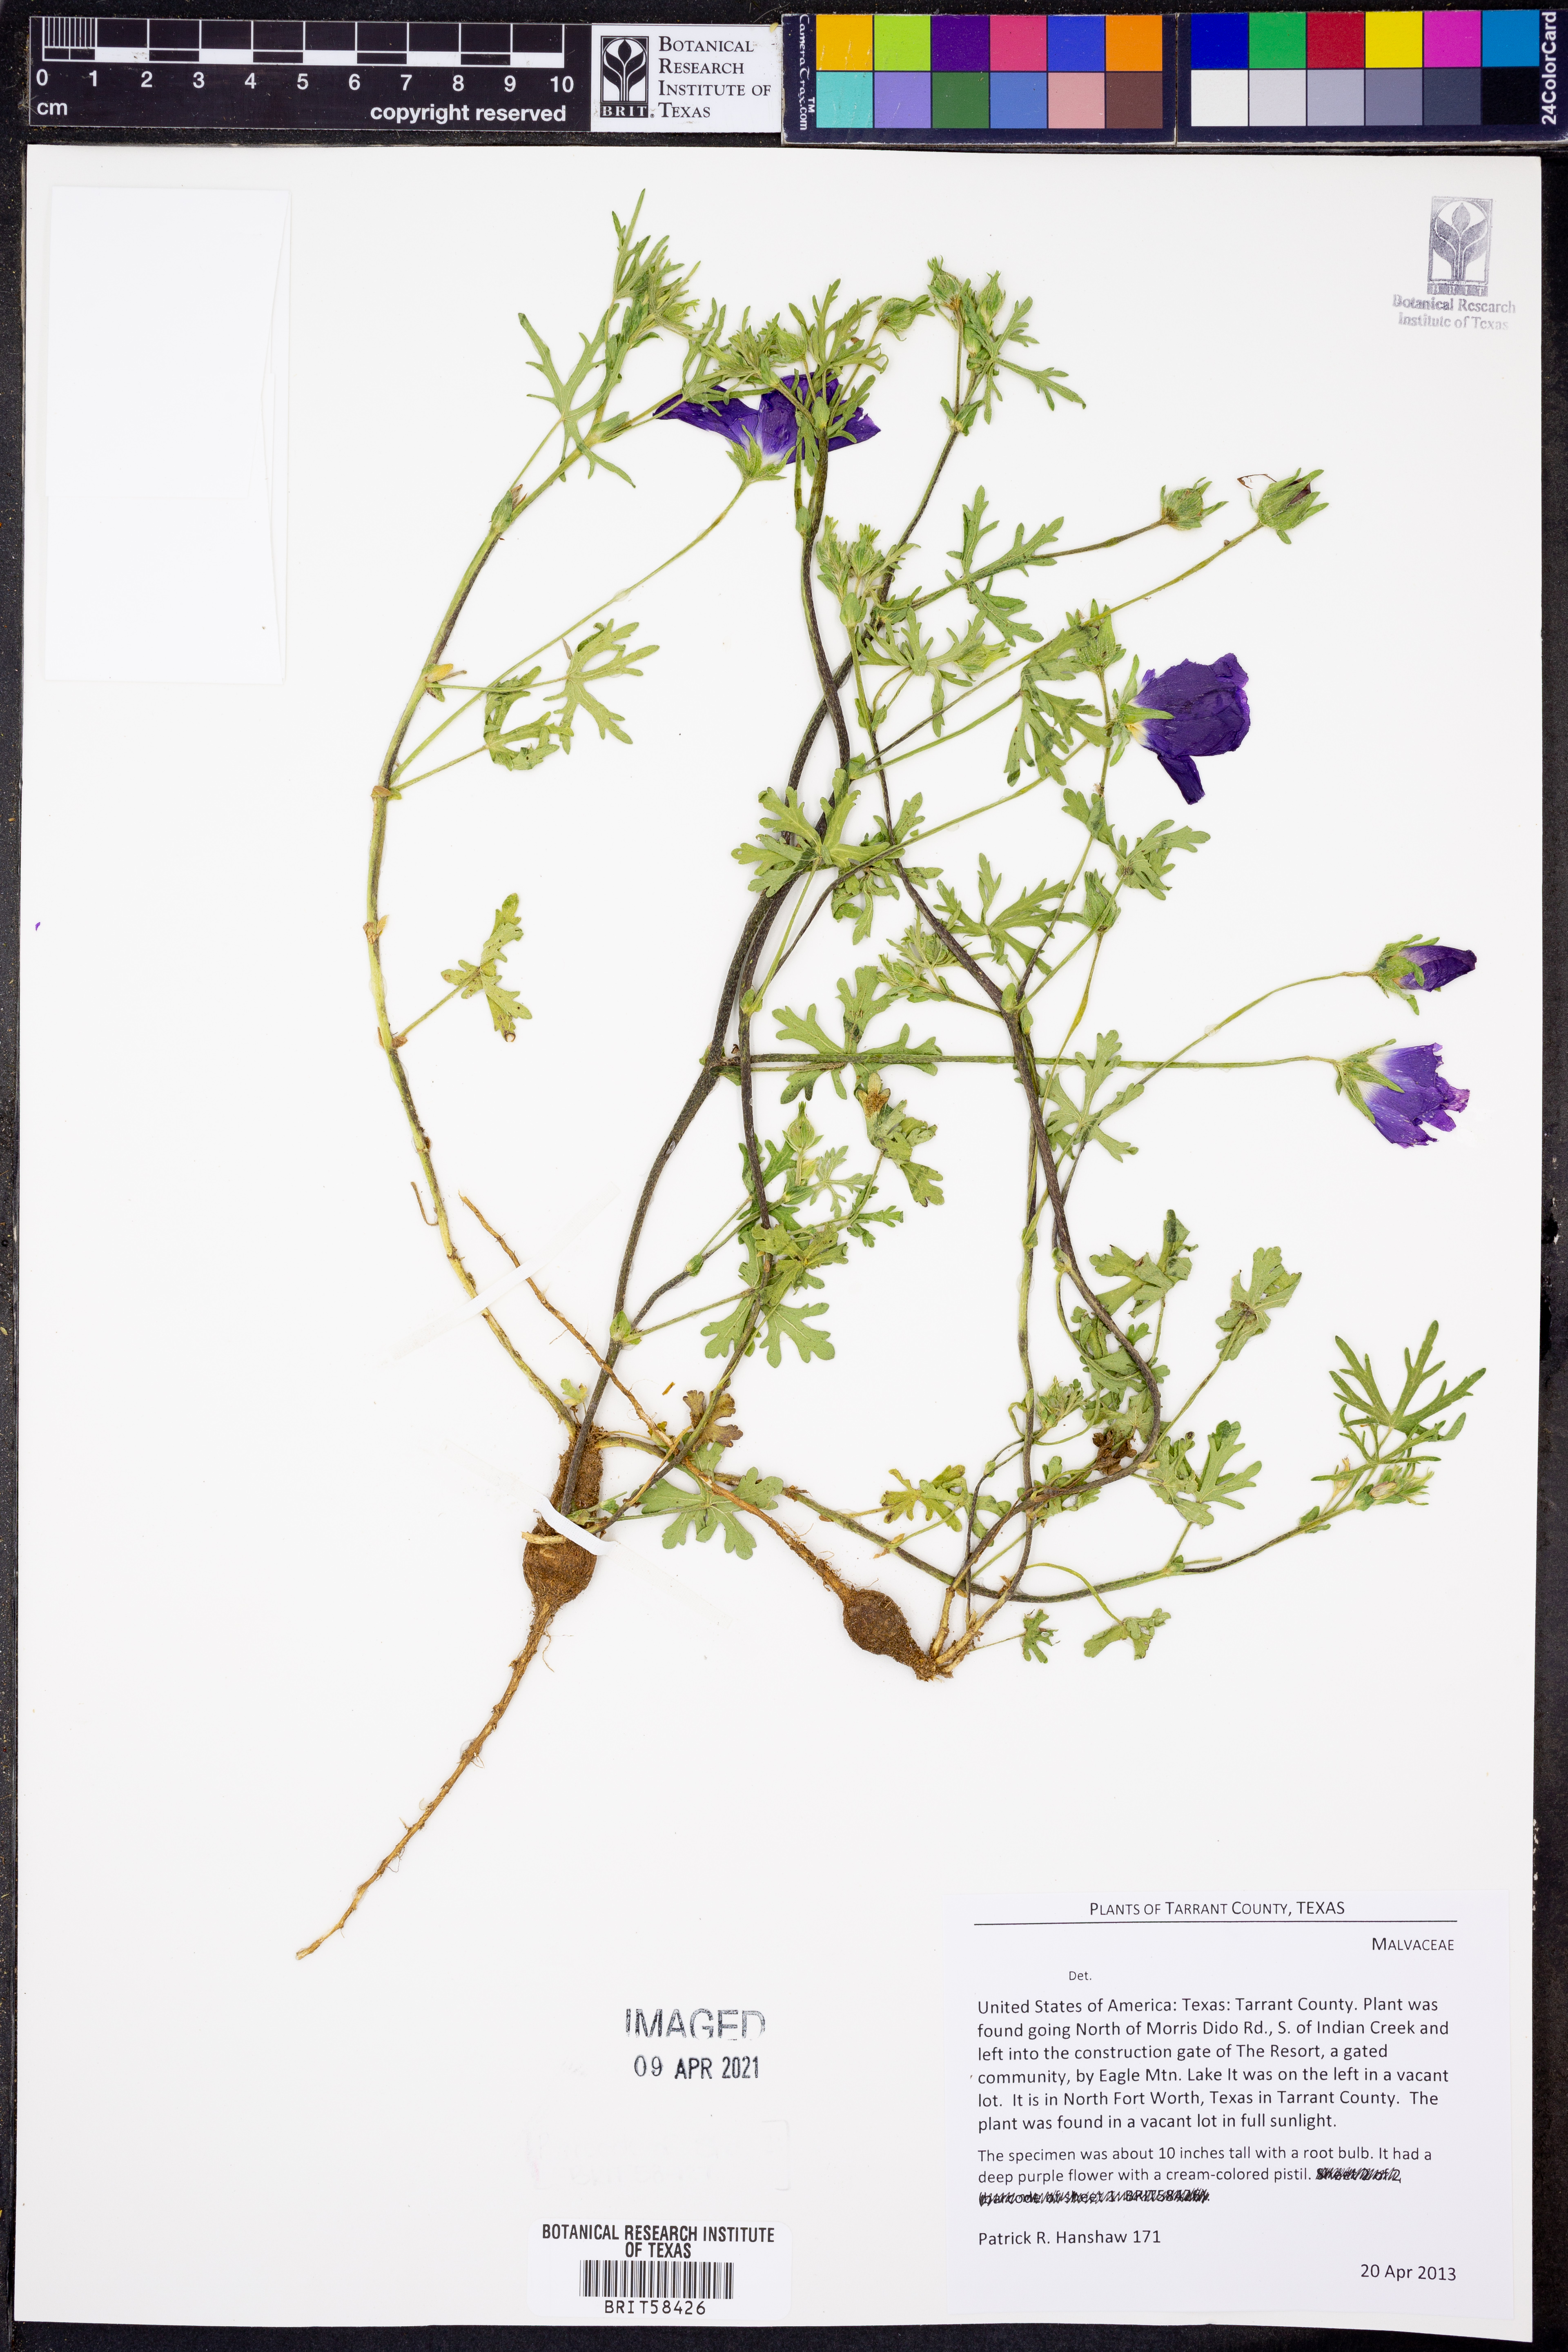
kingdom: Plantae
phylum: Tracheophyta
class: Magnoliopsida
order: Malvales
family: Malvaceae
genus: Callirhoe
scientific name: Callirhoe pedata
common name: Finger poppy-mallow
